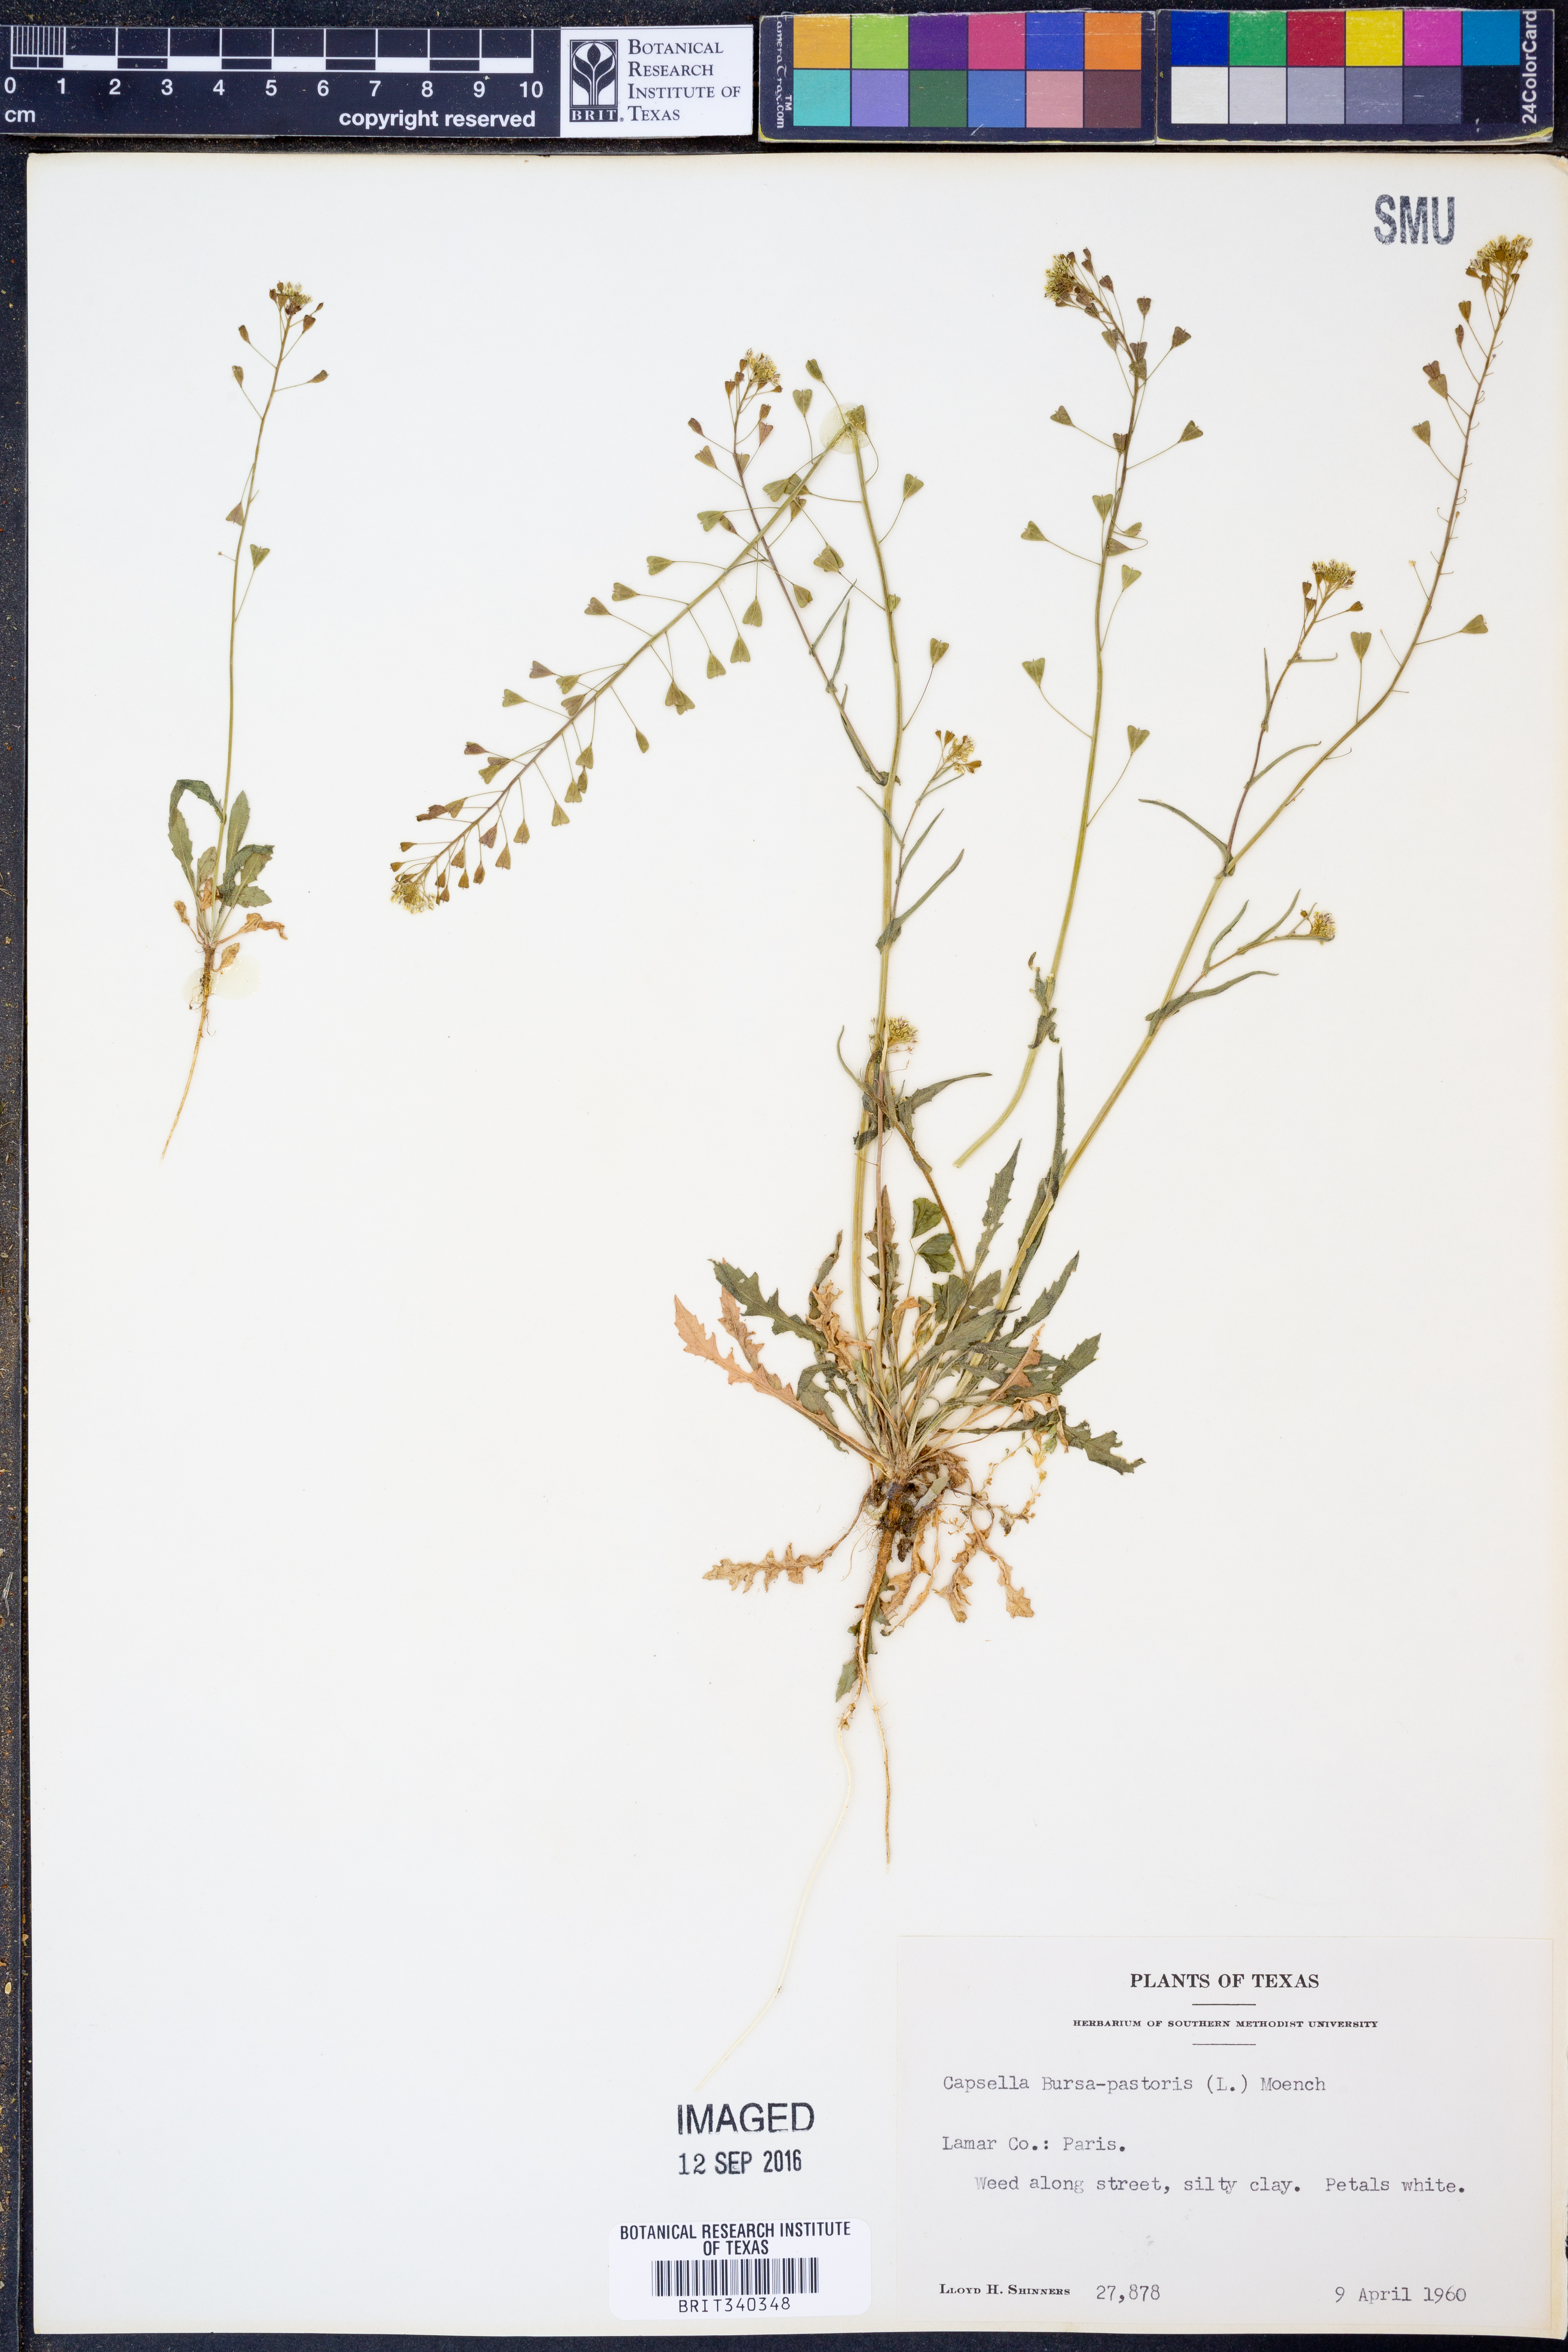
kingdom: Plantae
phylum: Tracheophyta
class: Magnoliopsida
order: Brassicales
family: Brassicaceae
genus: Capsella
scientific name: Capsella bursa-pastoris
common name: Shepherd's purse
